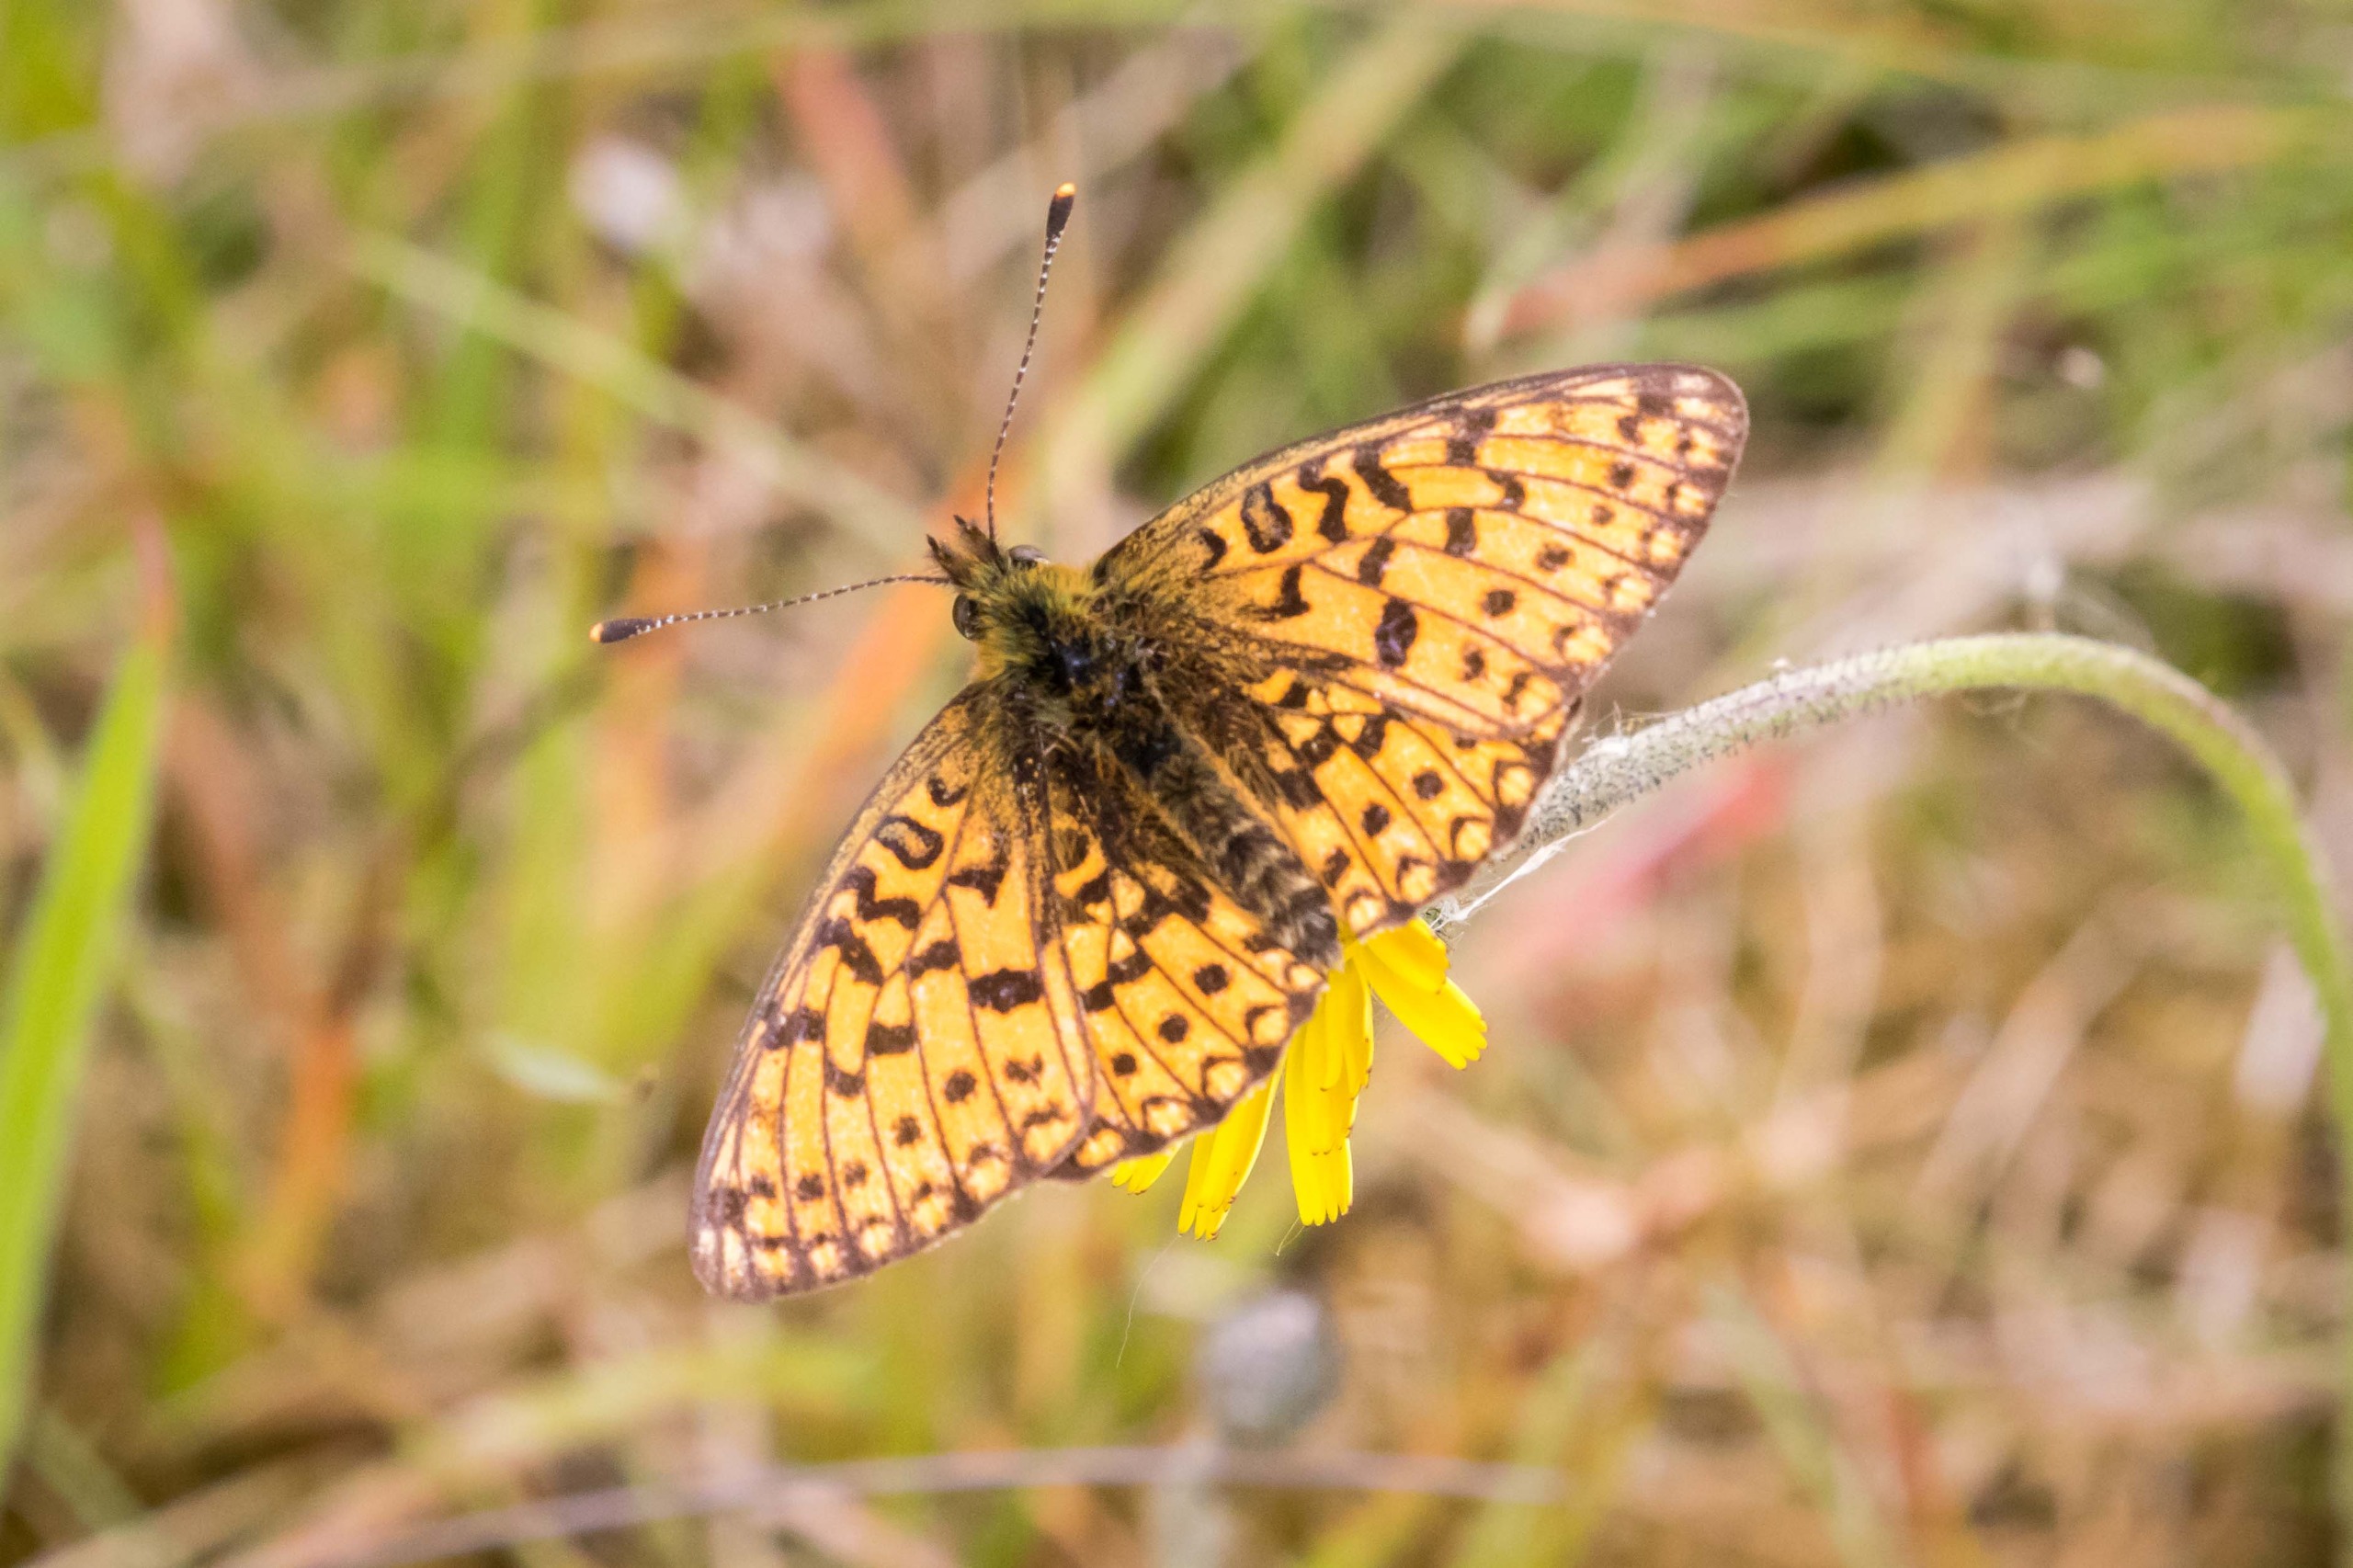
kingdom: Animalia
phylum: Arthropoda
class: Insecta
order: Lepidoptera
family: Nymphalidae
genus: Boloria
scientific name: Boloria selene
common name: Brunlig perlemorsommerfugl
